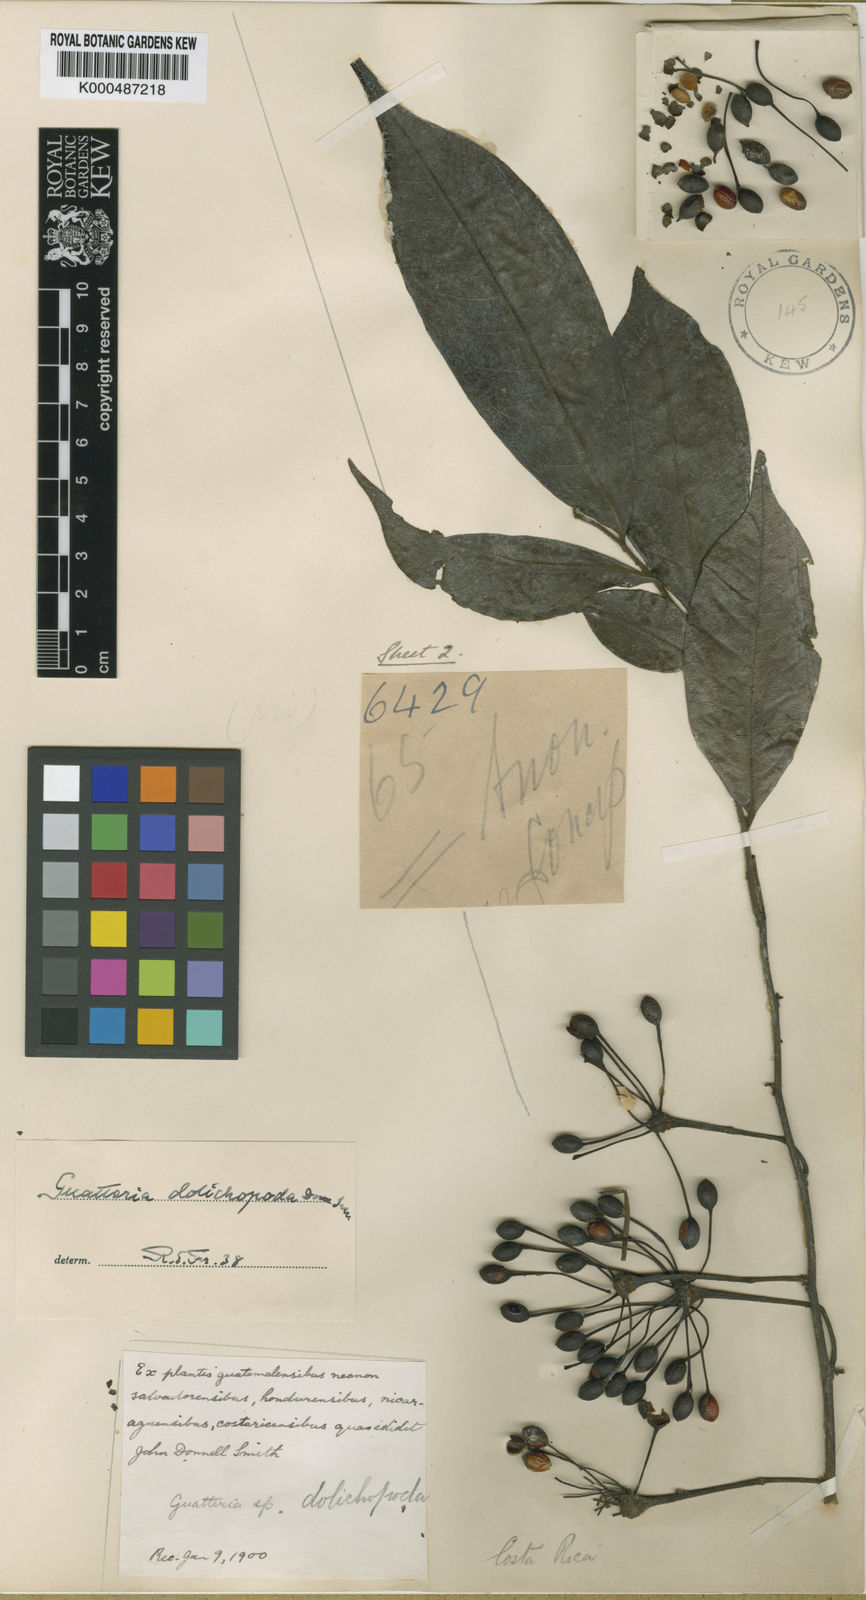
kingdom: Plantae
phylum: Tracheophyta
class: Magnoliopsida
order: Magnoliales
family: Annonaceae
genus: Guatteria
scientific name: Guatteria dolichopoda
